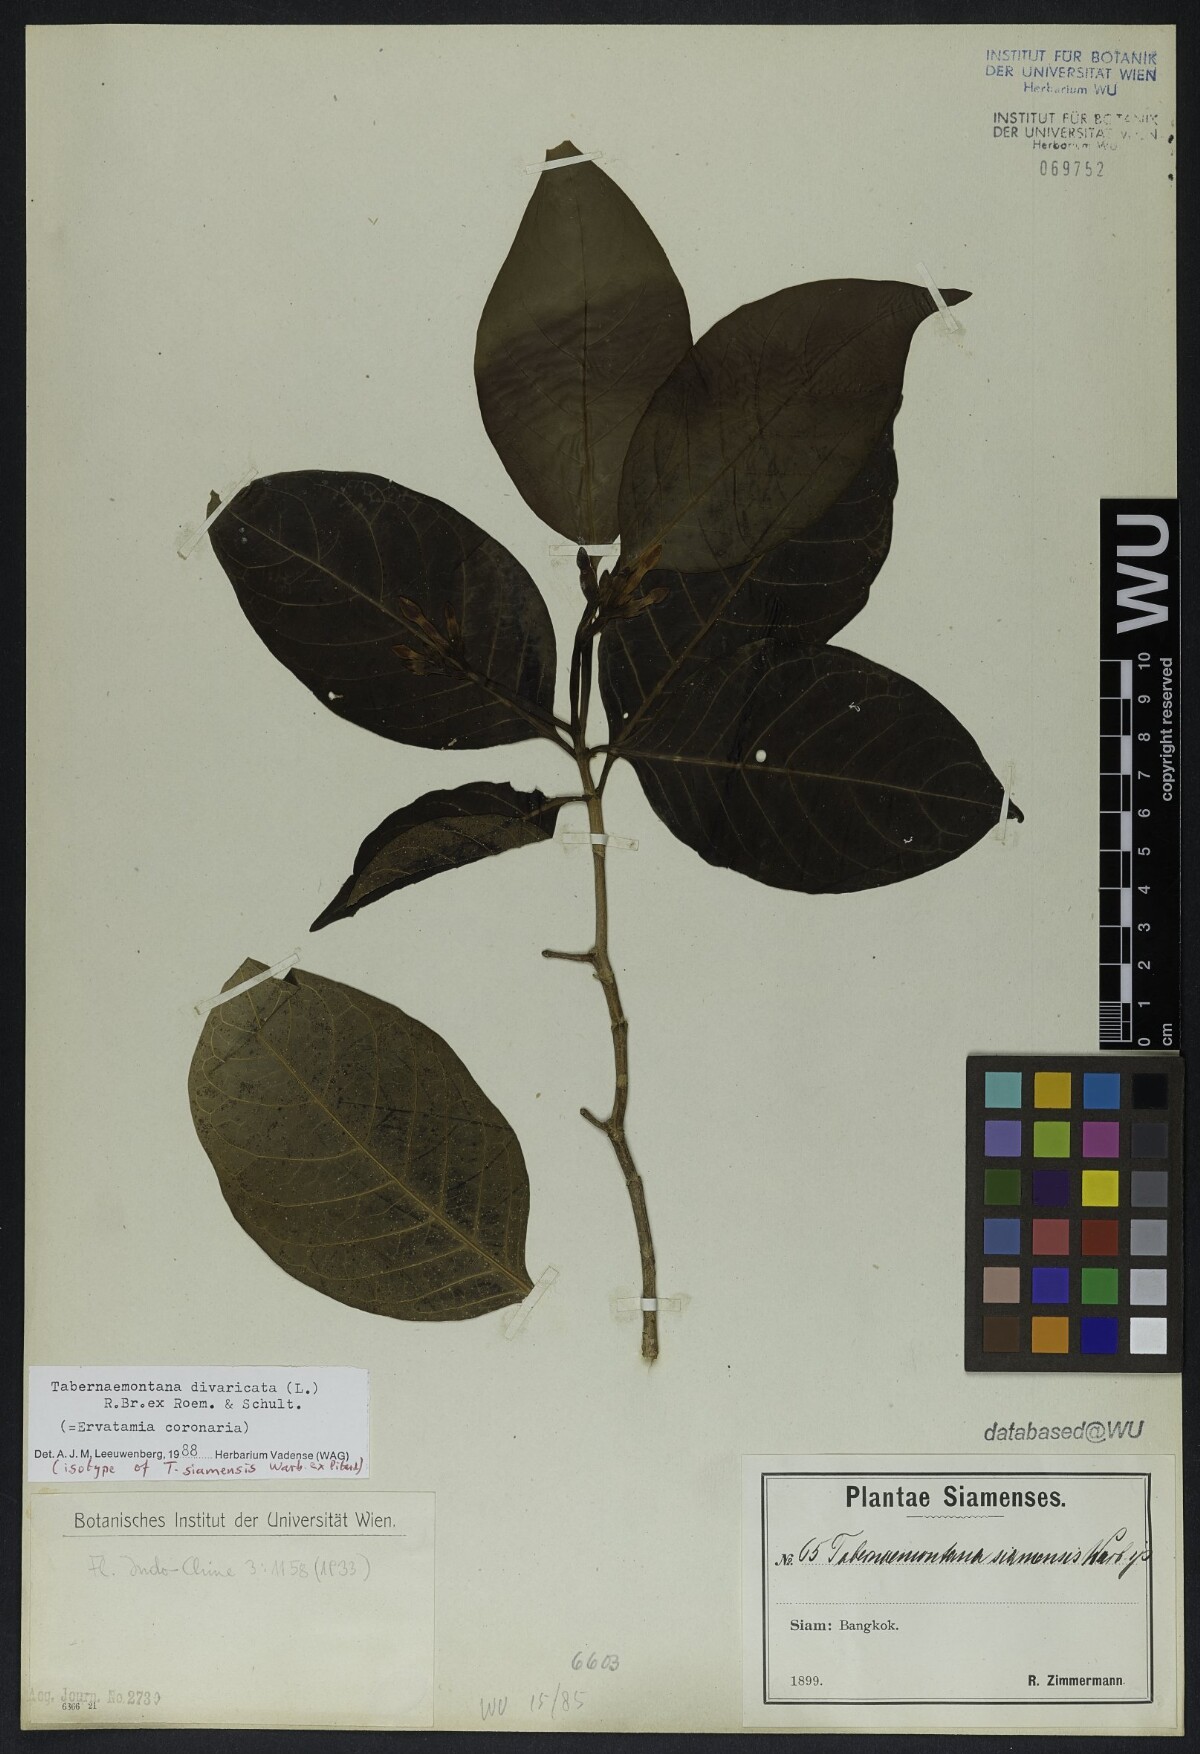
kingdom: Plantae
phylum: Tracheophyta
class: Magnoliopsida
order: Gentianales
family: Apocynaceae
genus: Tabernaemontana
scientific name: Tabernaemontana divaricata
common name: Pinwheelflower
